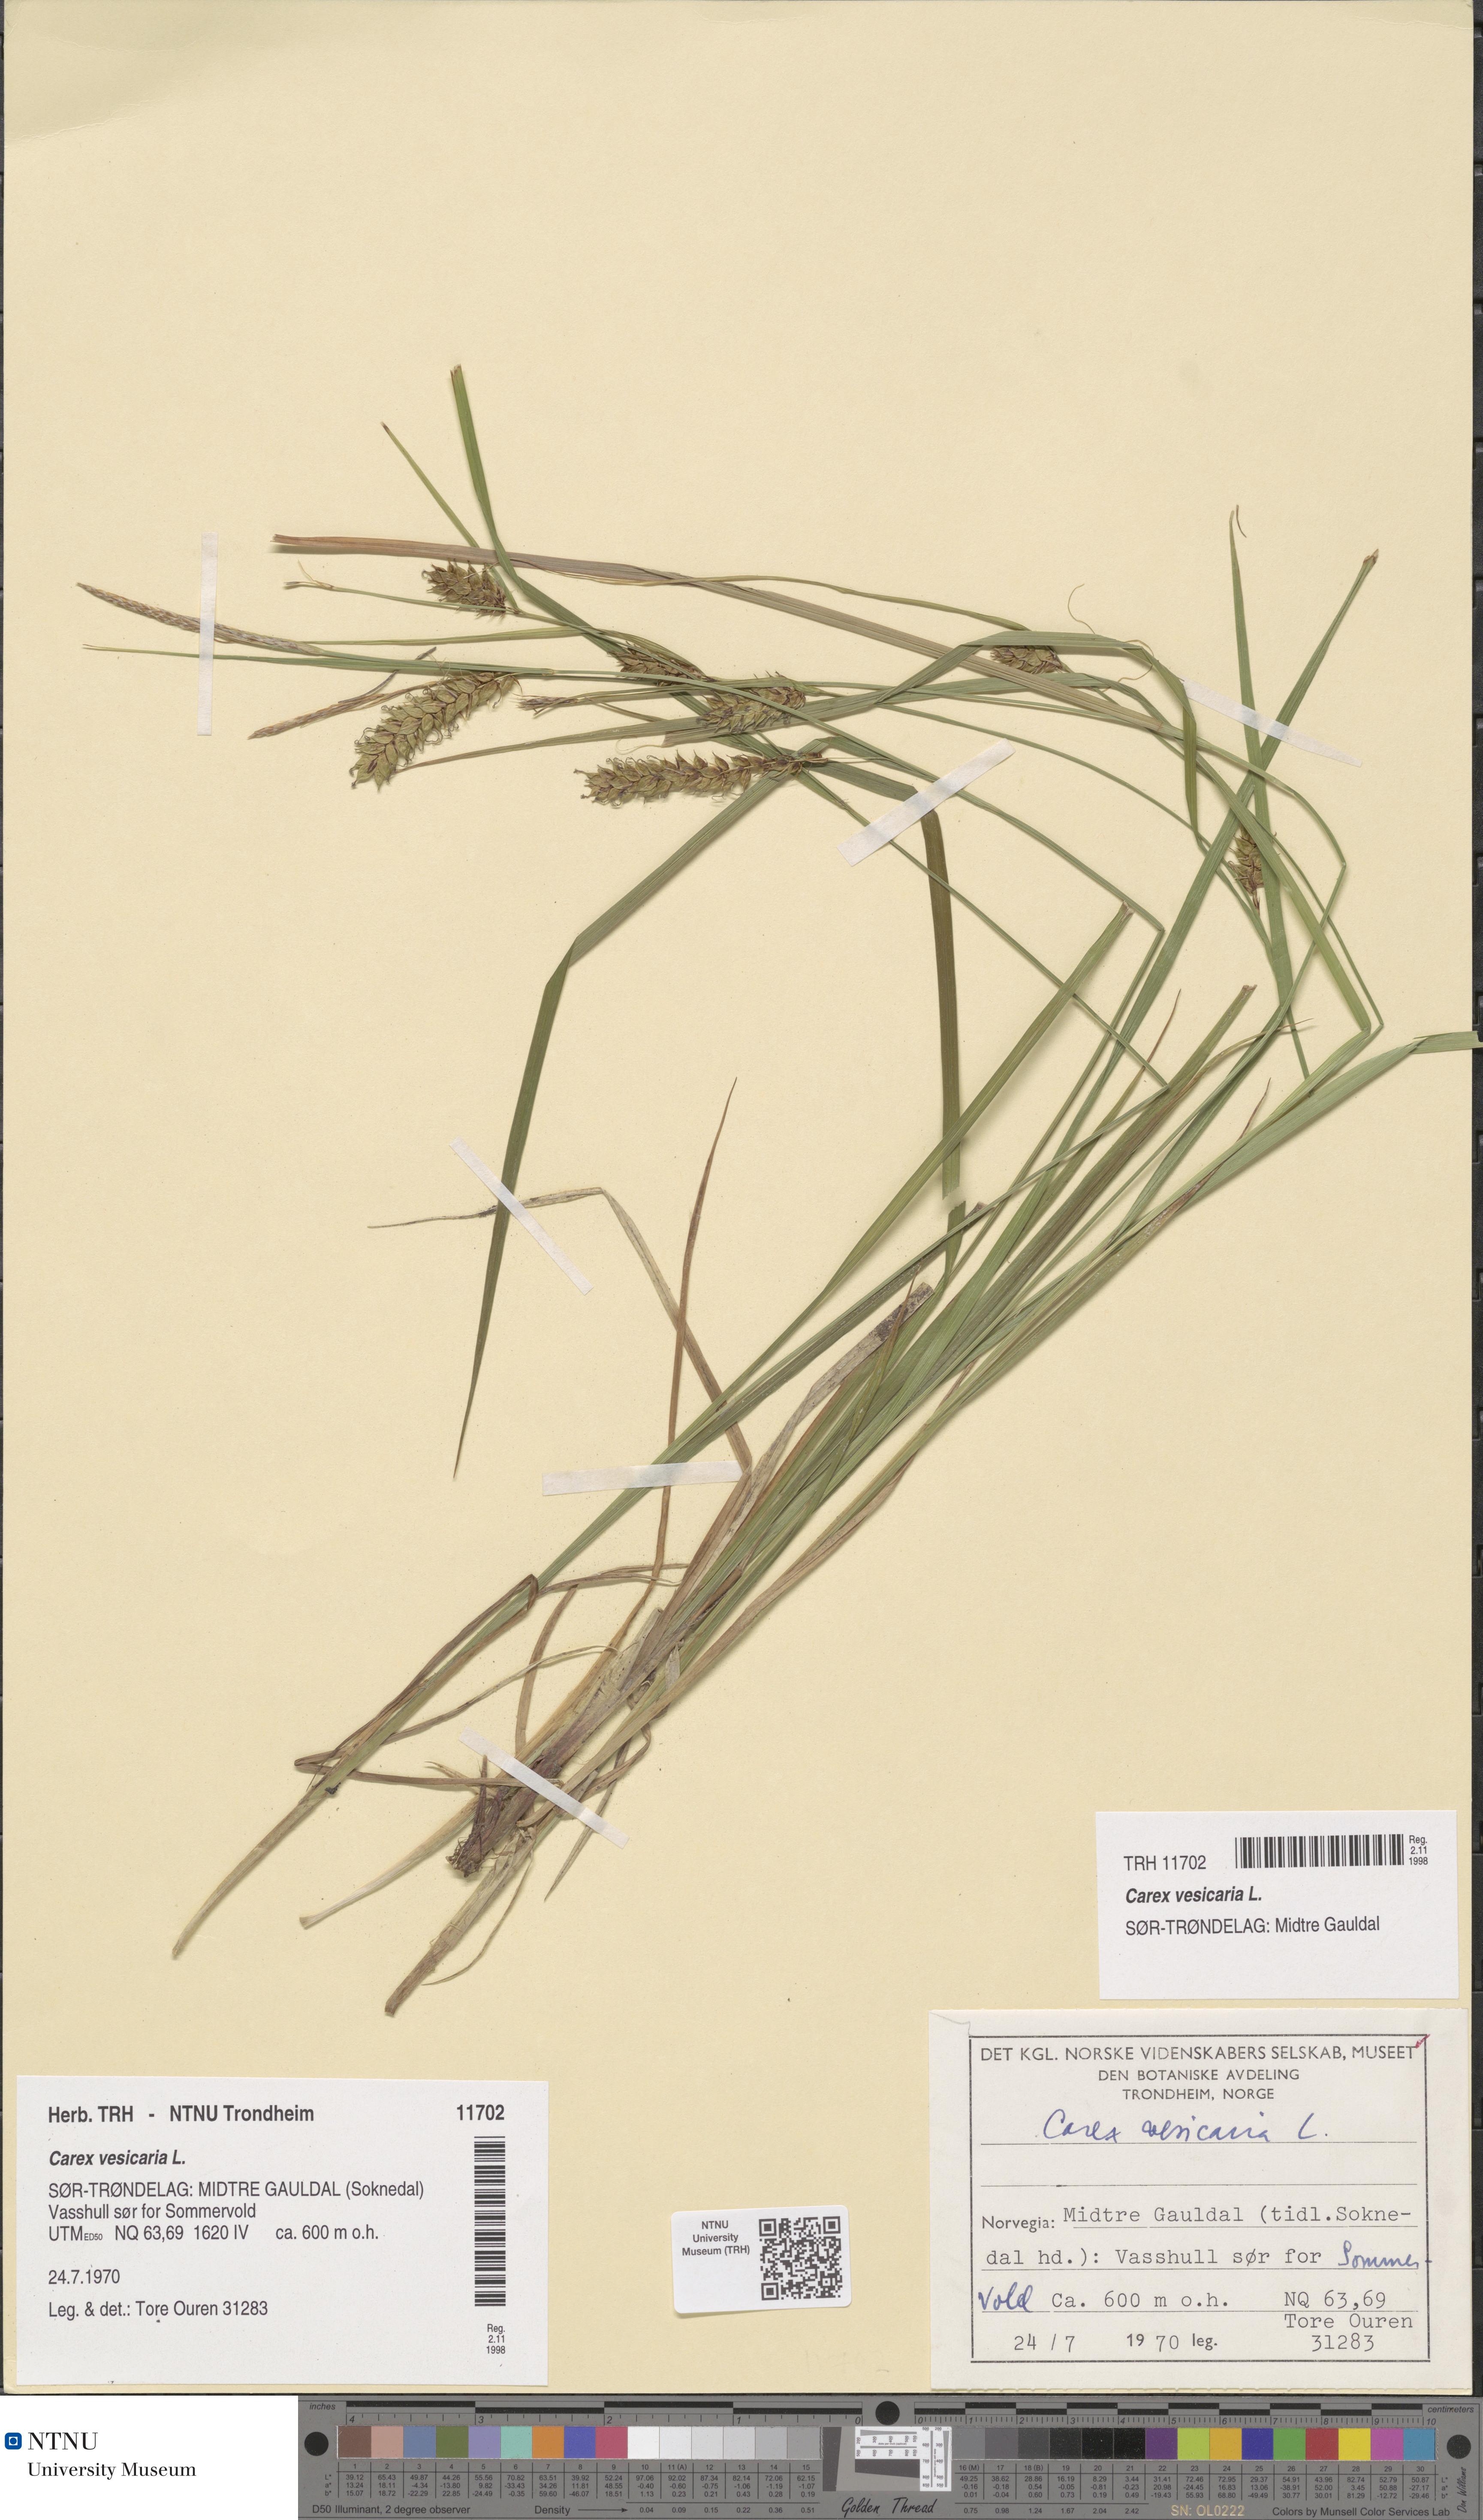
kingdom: Plantae
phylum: Tracheophyta
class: Liliopsida
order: Poales
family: Cyperaceae
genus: Carex
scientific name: Carex vesicaria
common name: Bladder-sedge
